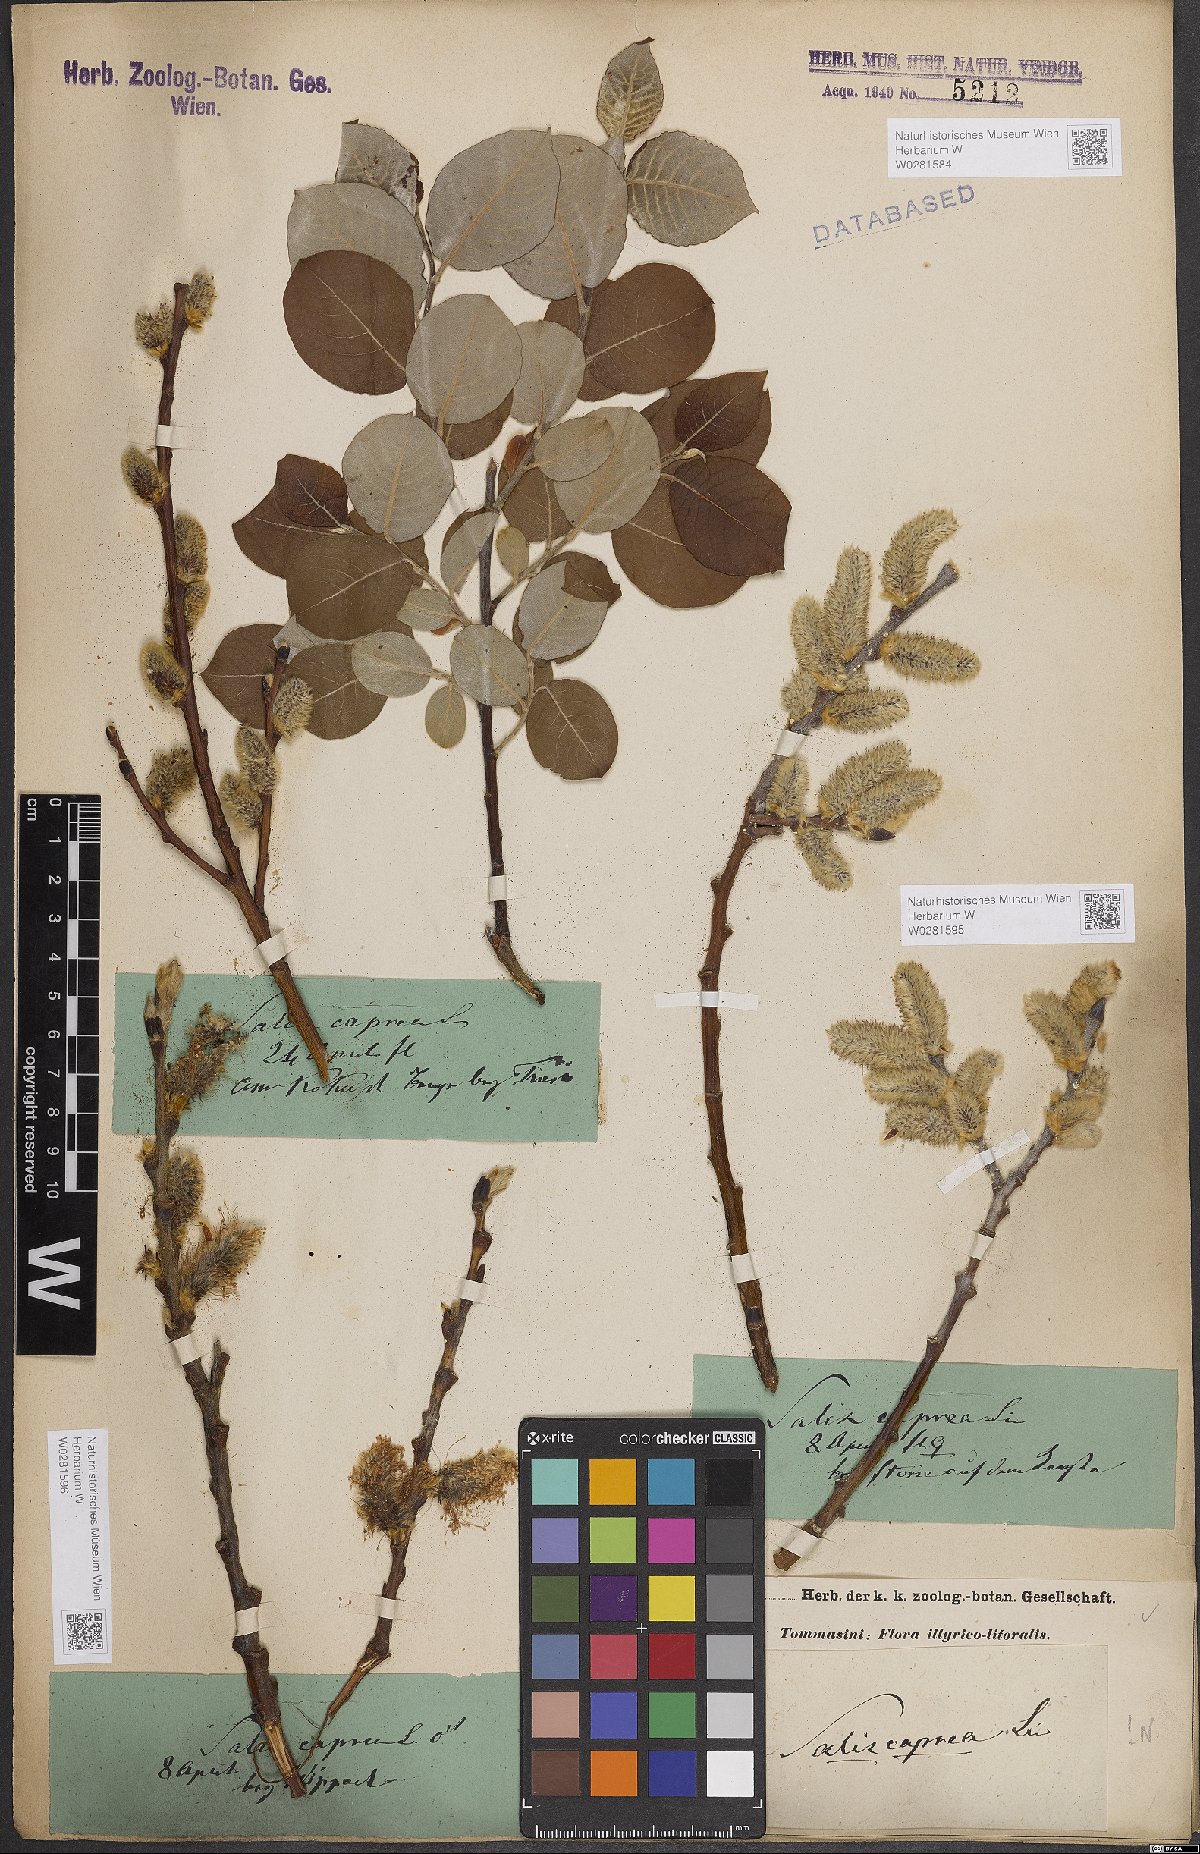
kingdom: Plantae
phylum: Tracheophyta
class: Magnoliopsida
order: Malpighiales
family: Salicaceae
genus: Salix
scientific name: Salix caprea
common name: Goat willow
